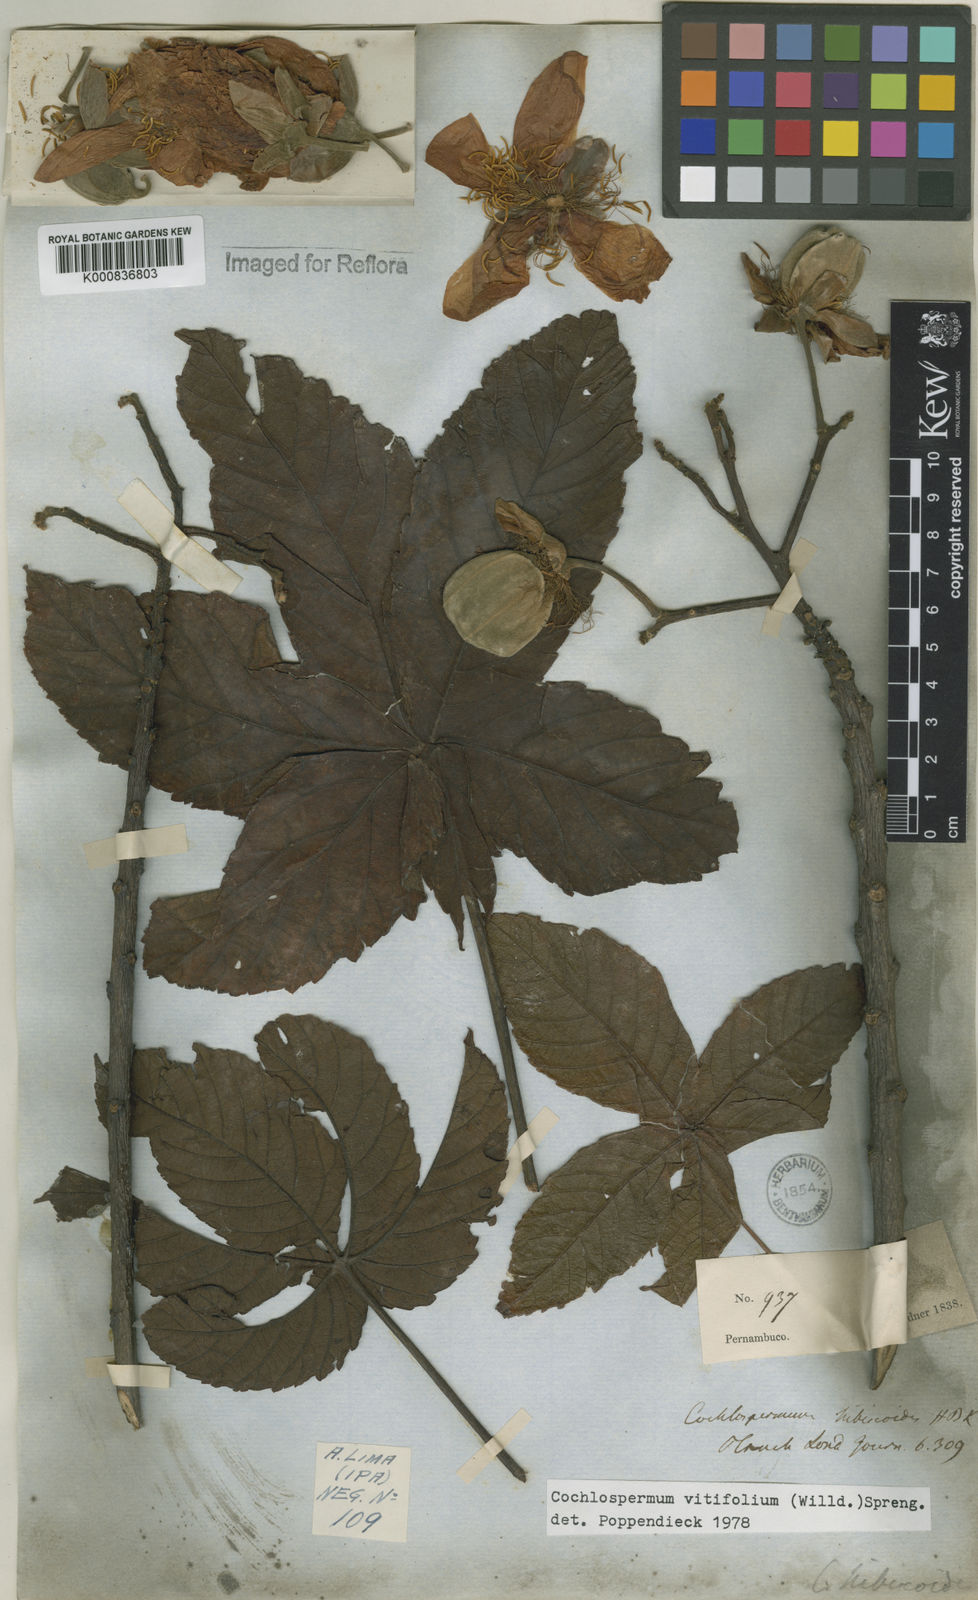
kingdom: Plantae
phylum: Tracheophyta
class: Magnoliopsida
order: Malvales
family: Cochlospermaceae
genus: Cochlospermum
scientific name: Cochlospermum regium
